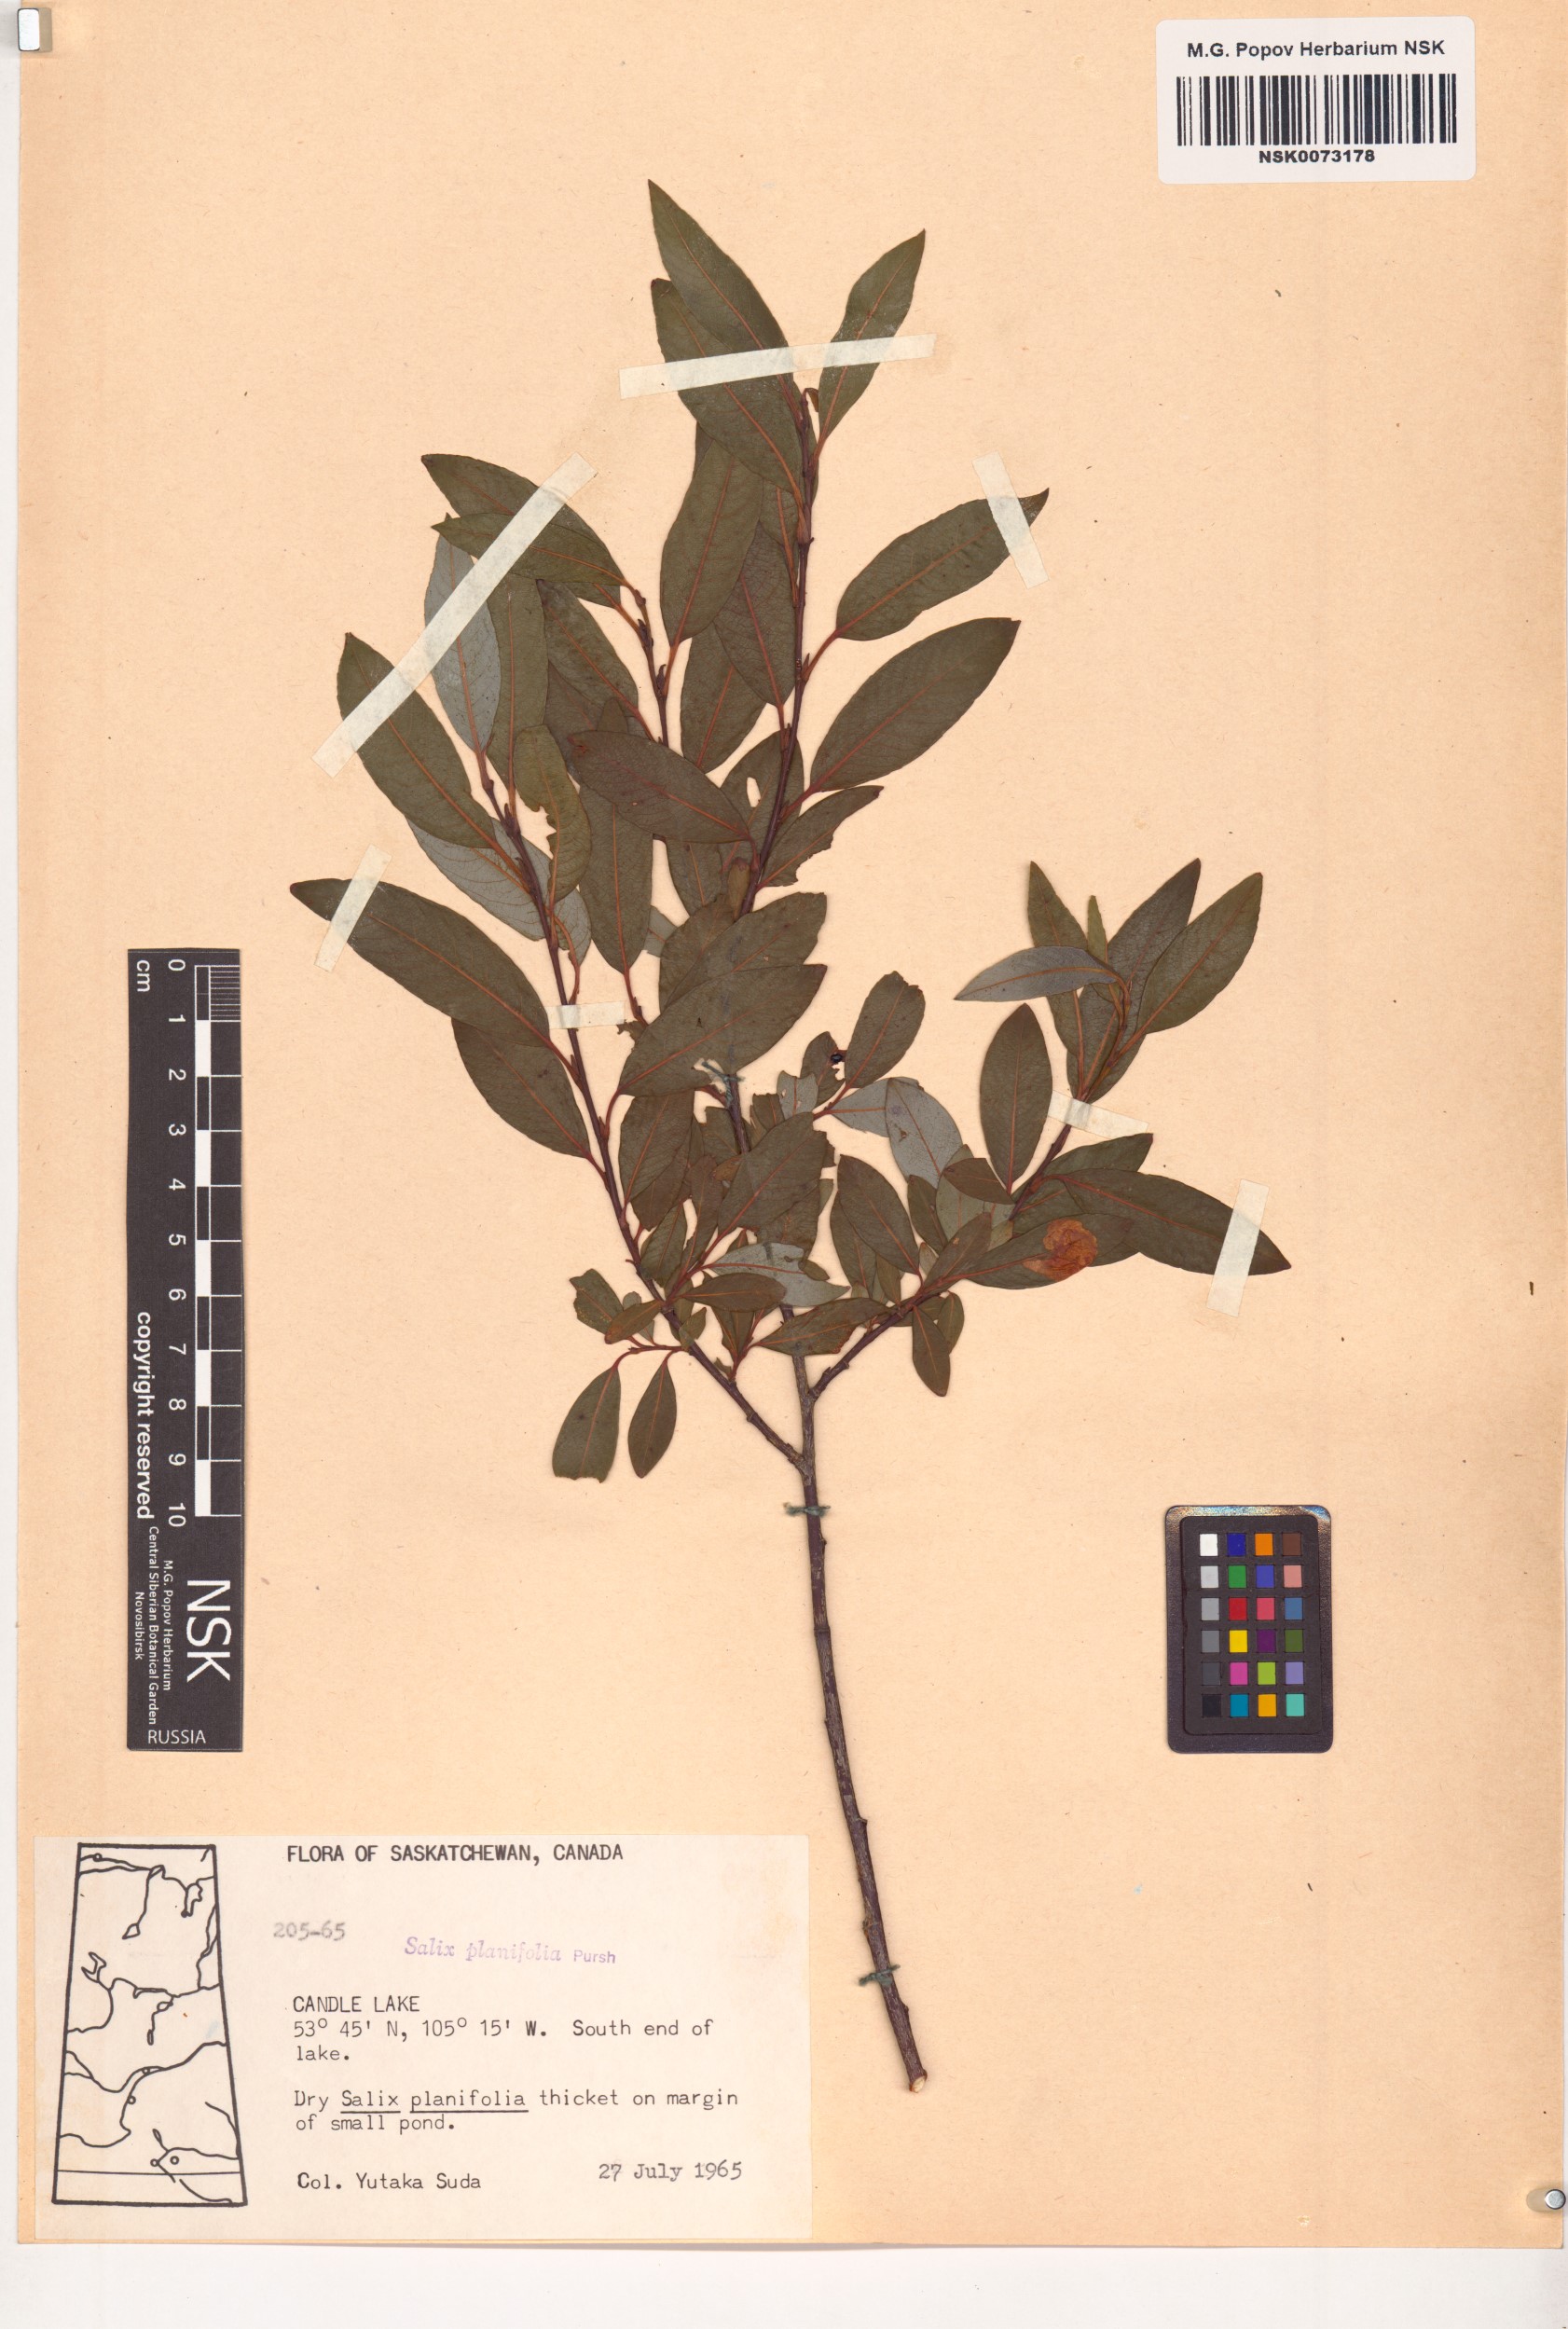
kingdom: Plantae
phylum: Tracheophyta
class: Magnoliopsida
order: Malpighiales
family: Salicaceae
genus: Salix
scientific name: Salix planifolia
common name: Mountain willow
